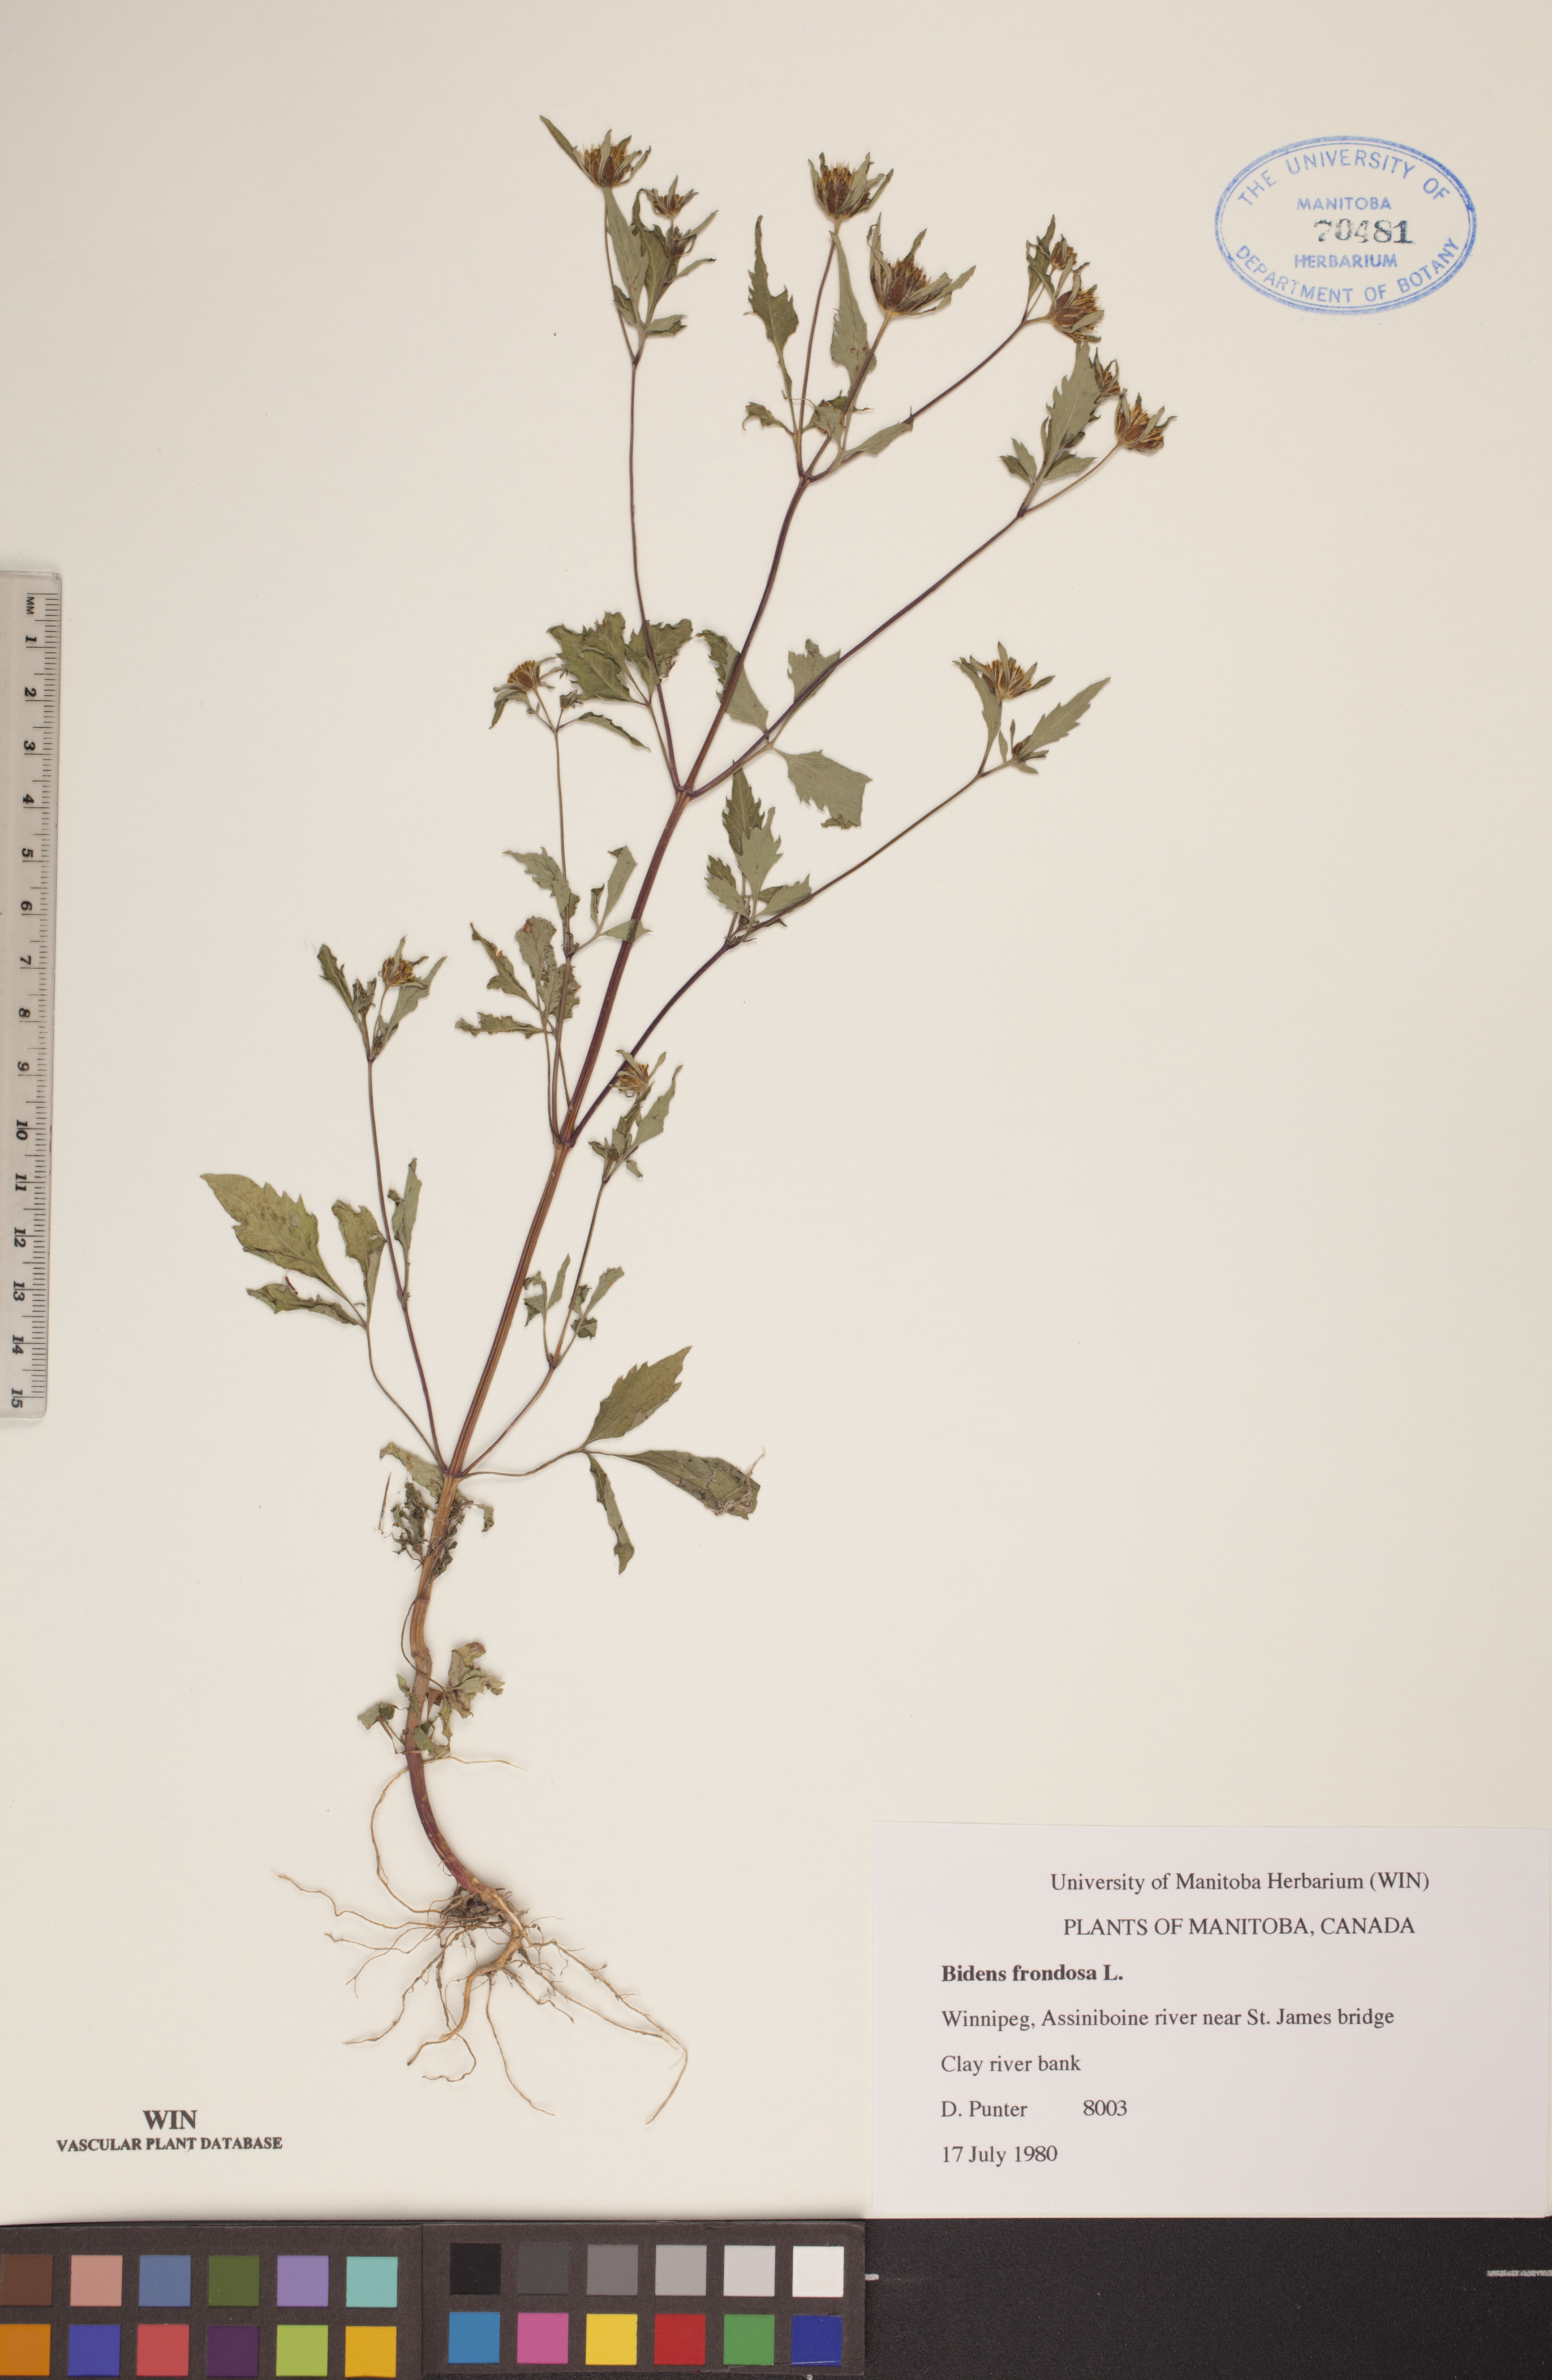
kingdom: Plantae
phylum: Tracheophyta
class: Magnoliopsida
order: Asterales
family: Asteraceae
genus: Bidens
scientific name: Bidens frondosa
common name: Beggarticks
